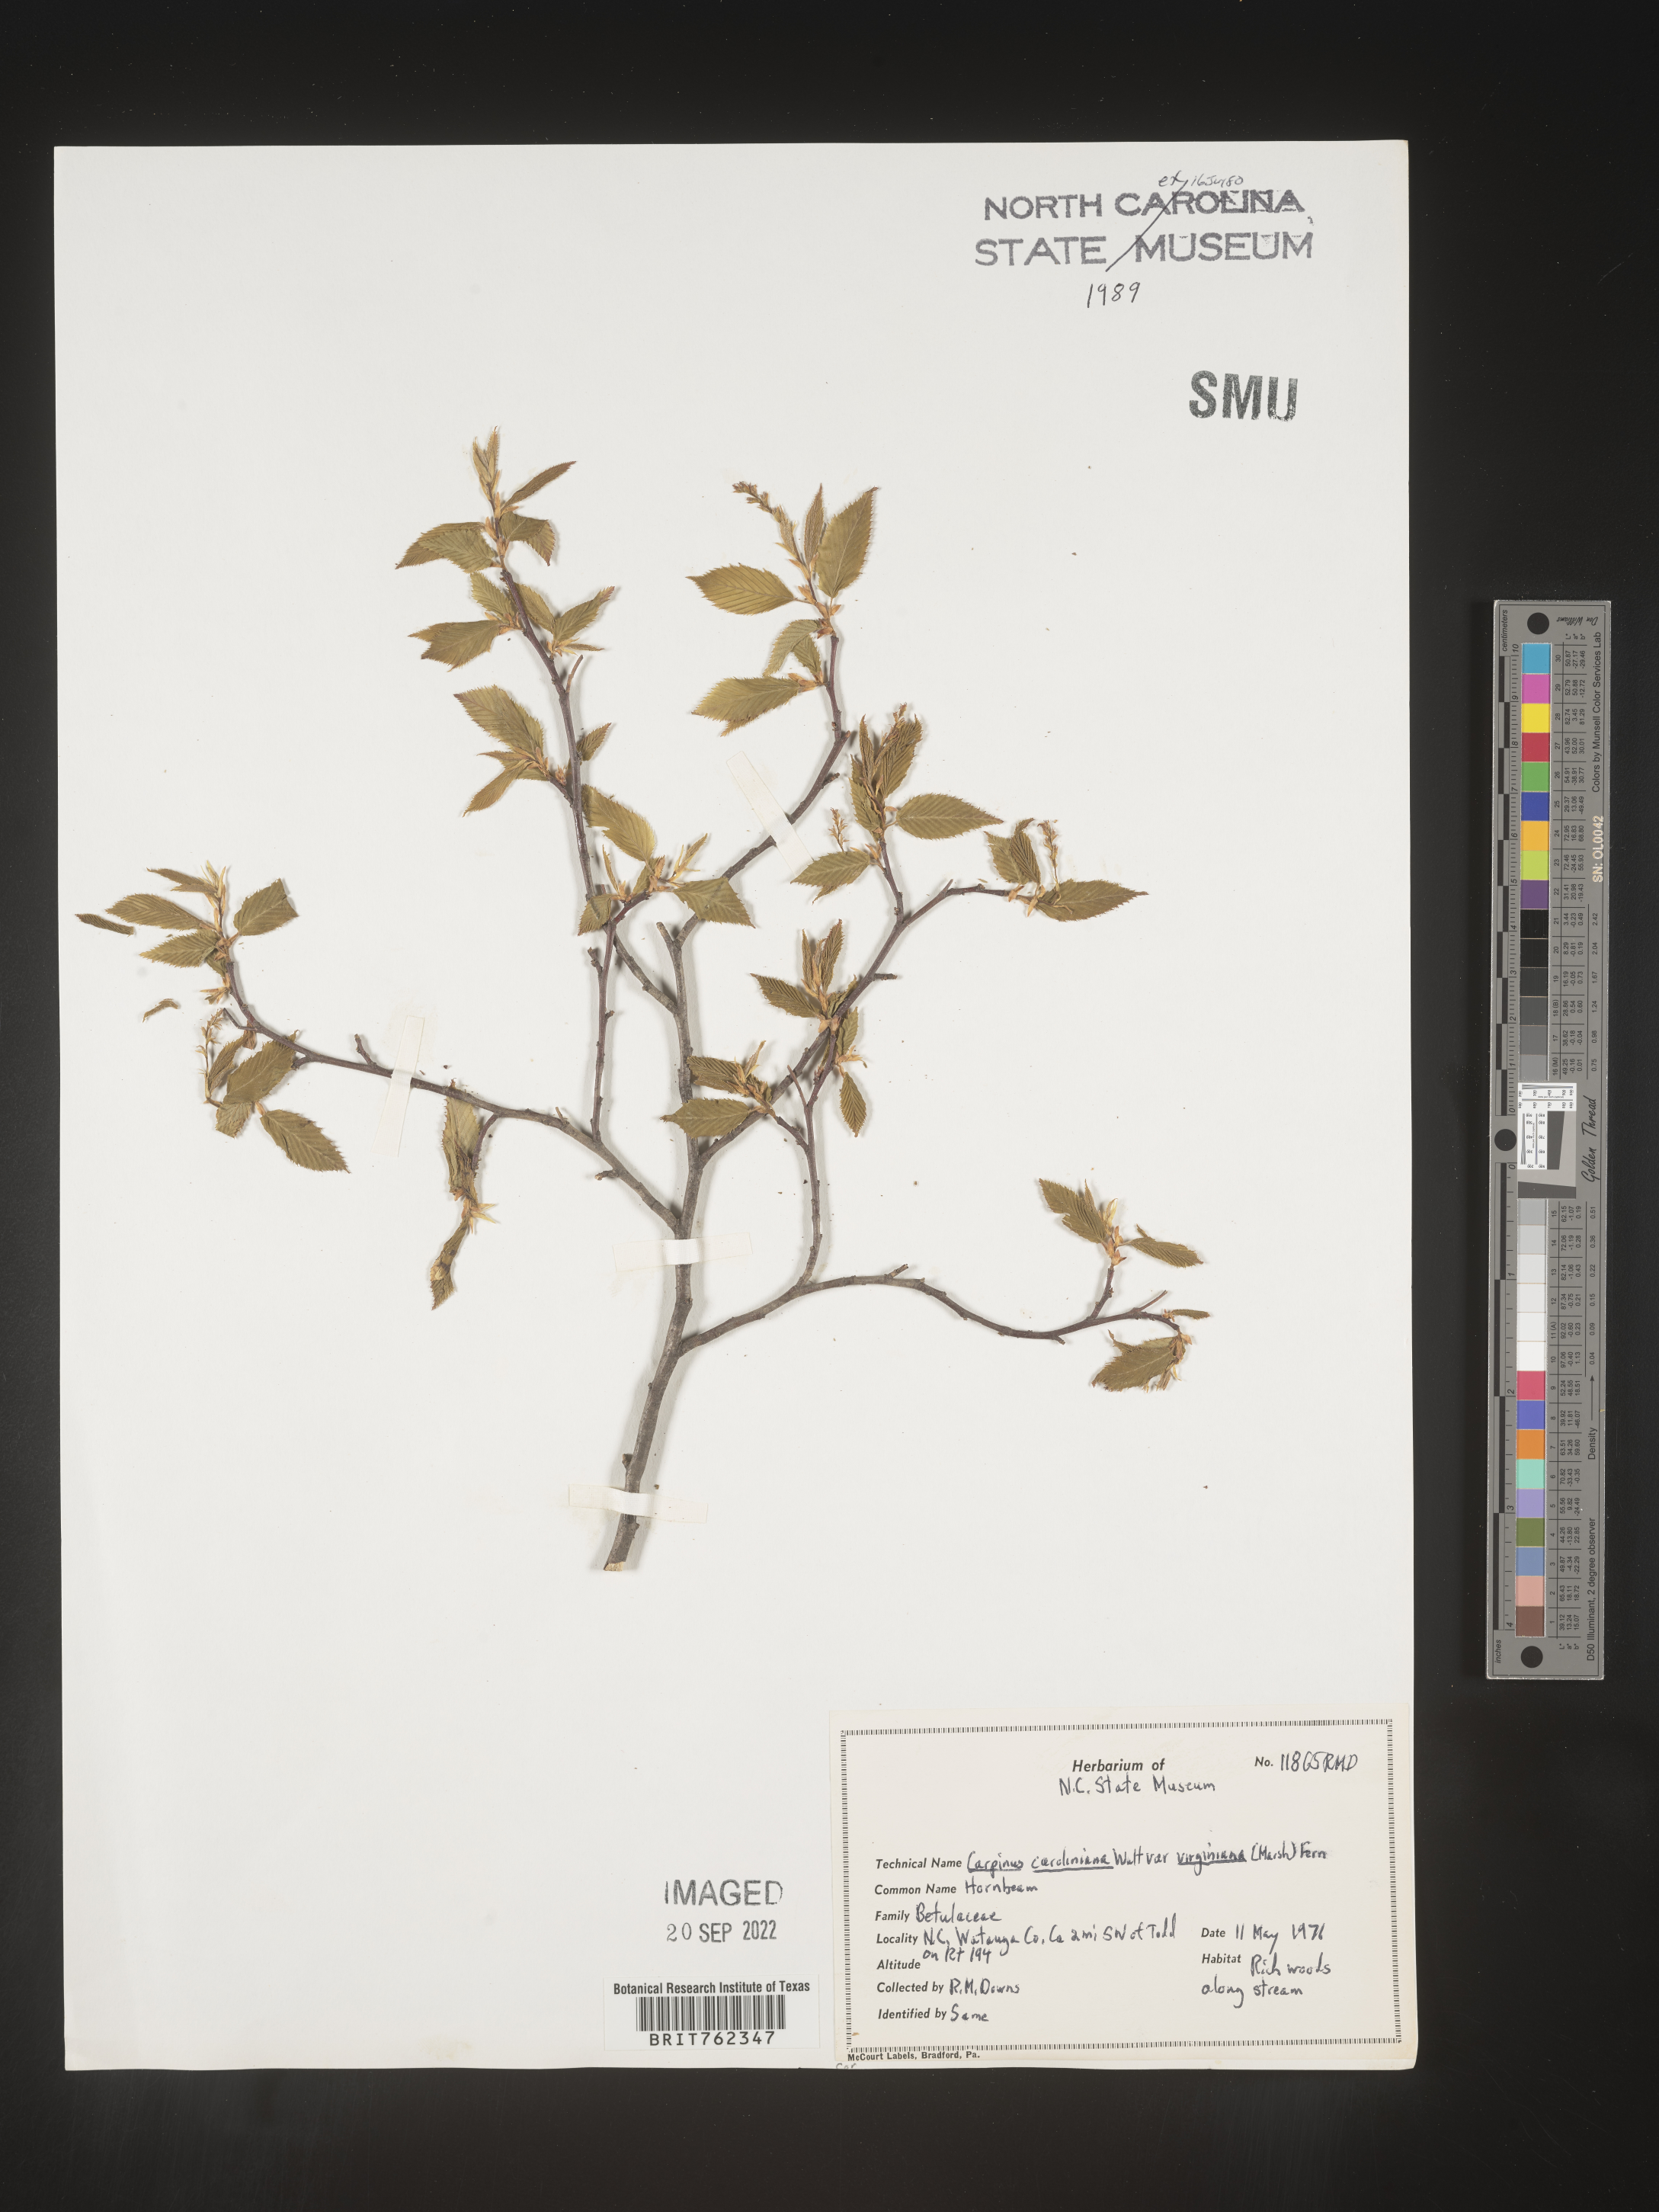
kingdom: Plantae
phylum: Tracheophyta
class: Magnoliopsida
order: Fagales
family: Betulaceae
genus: Carpinus
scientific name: Carpinus caroliniana
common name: American hornbeam
